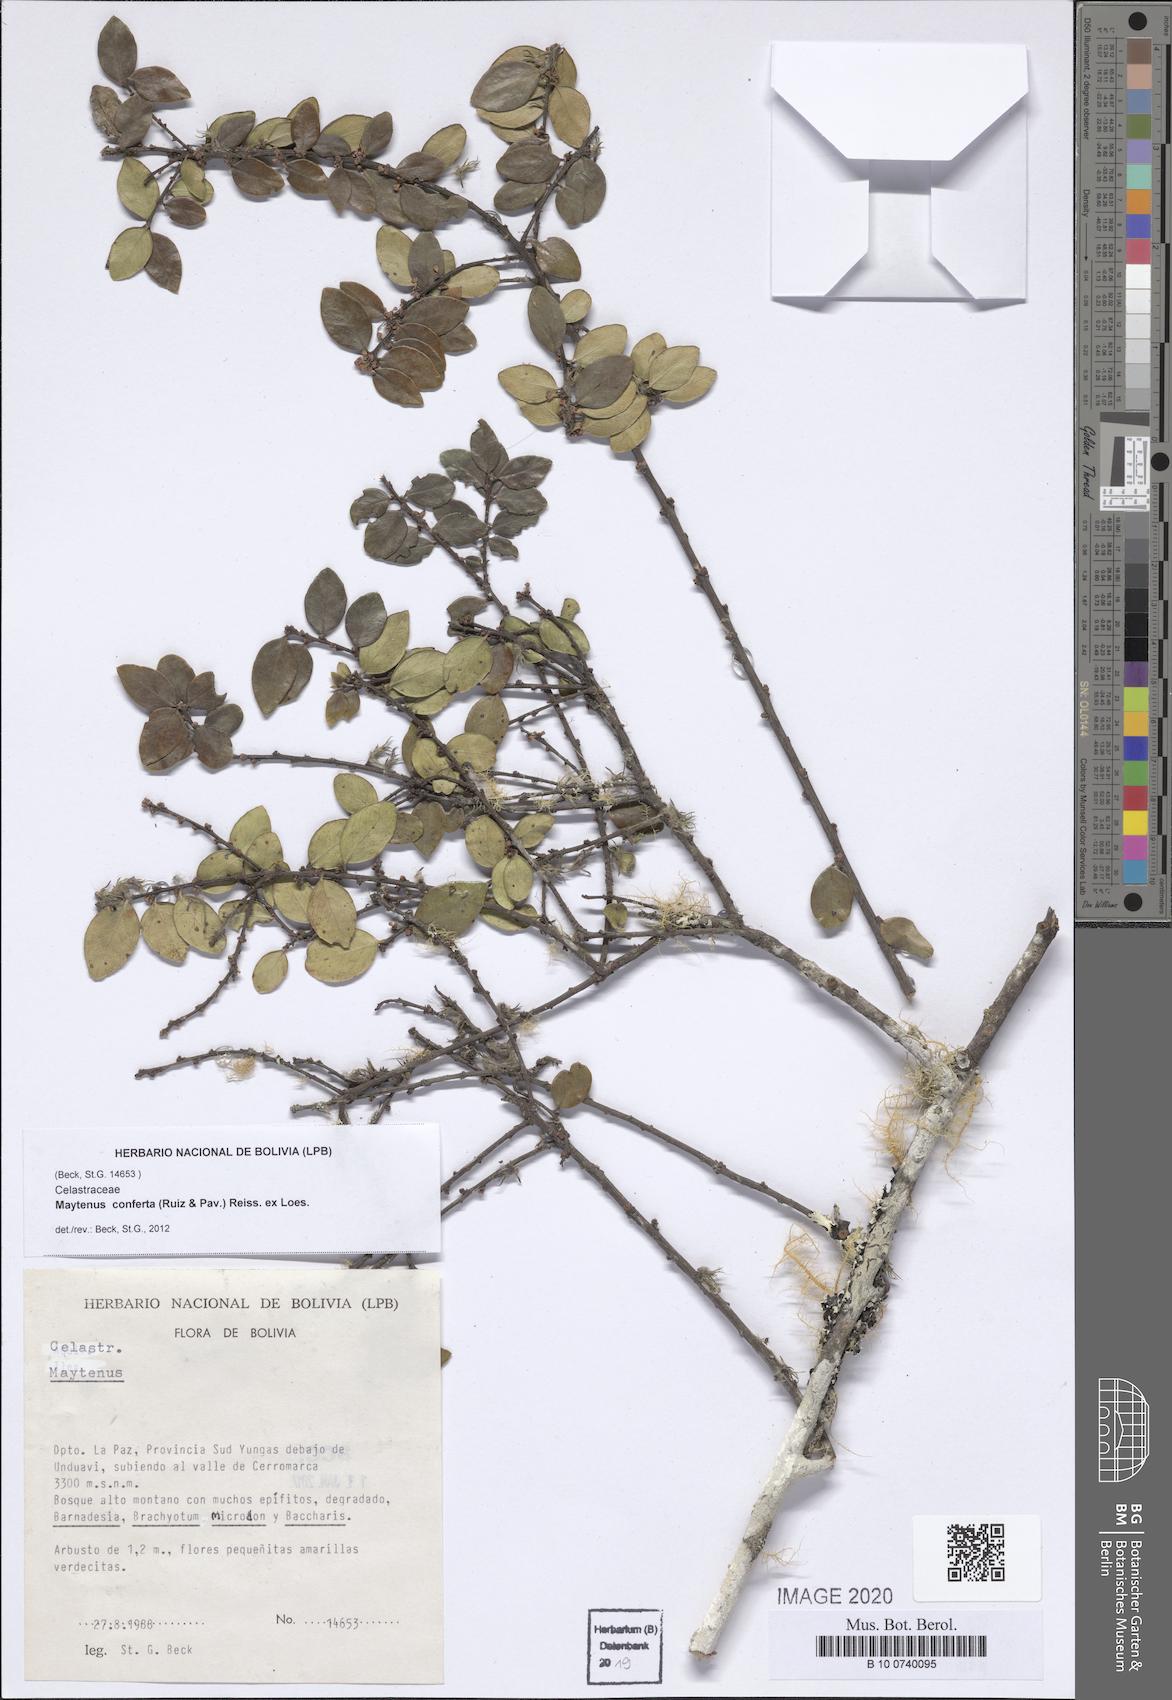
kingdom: Plantae
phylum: Tracheophyta
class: Magnoliopsida
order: Celastrales
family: Celastraceae
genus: Maytenus
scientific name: Maytenus conferta
